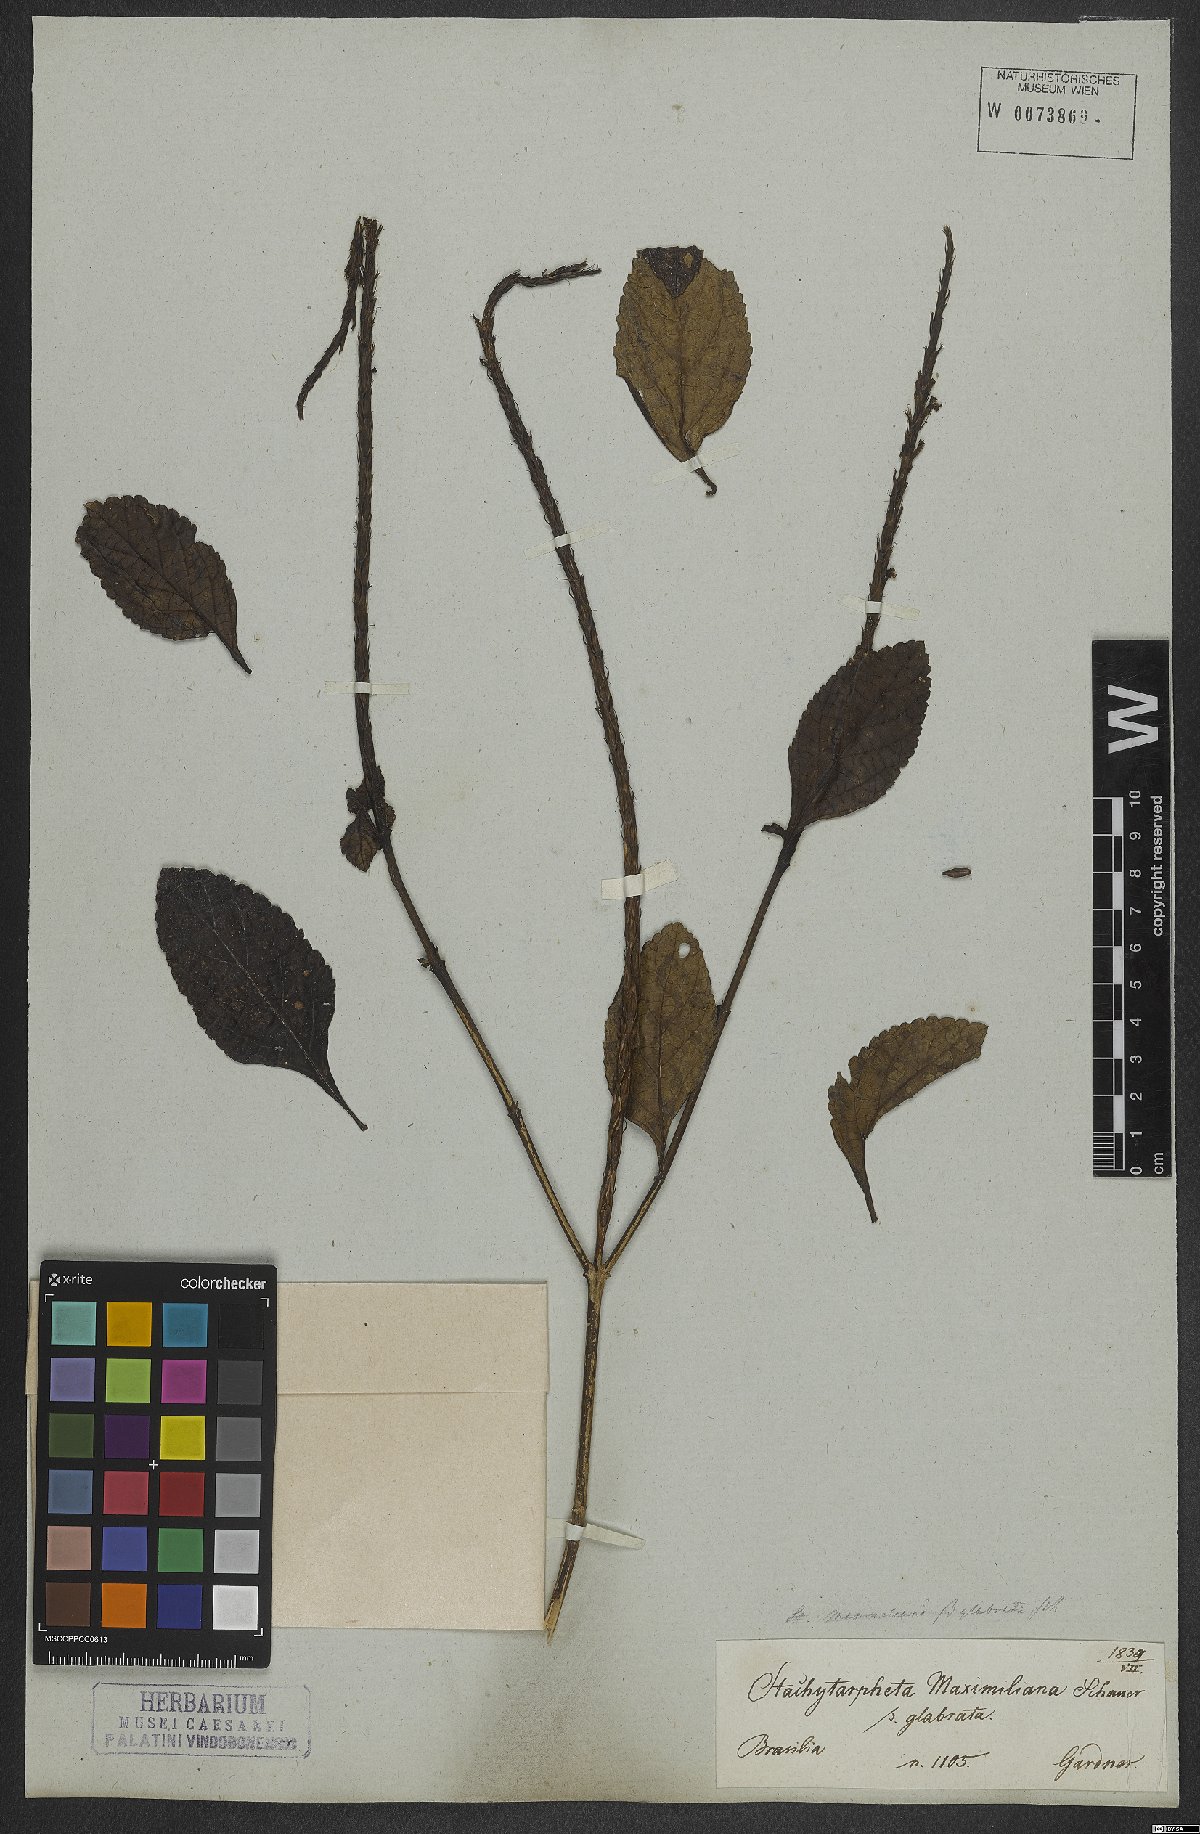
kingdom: Plantae
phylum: Tracheophyta
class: Magnoliopsida
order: Lamiales
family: Verbenaceae
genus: Stachytarpheta
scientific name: Stachytarpheta maximiliani
